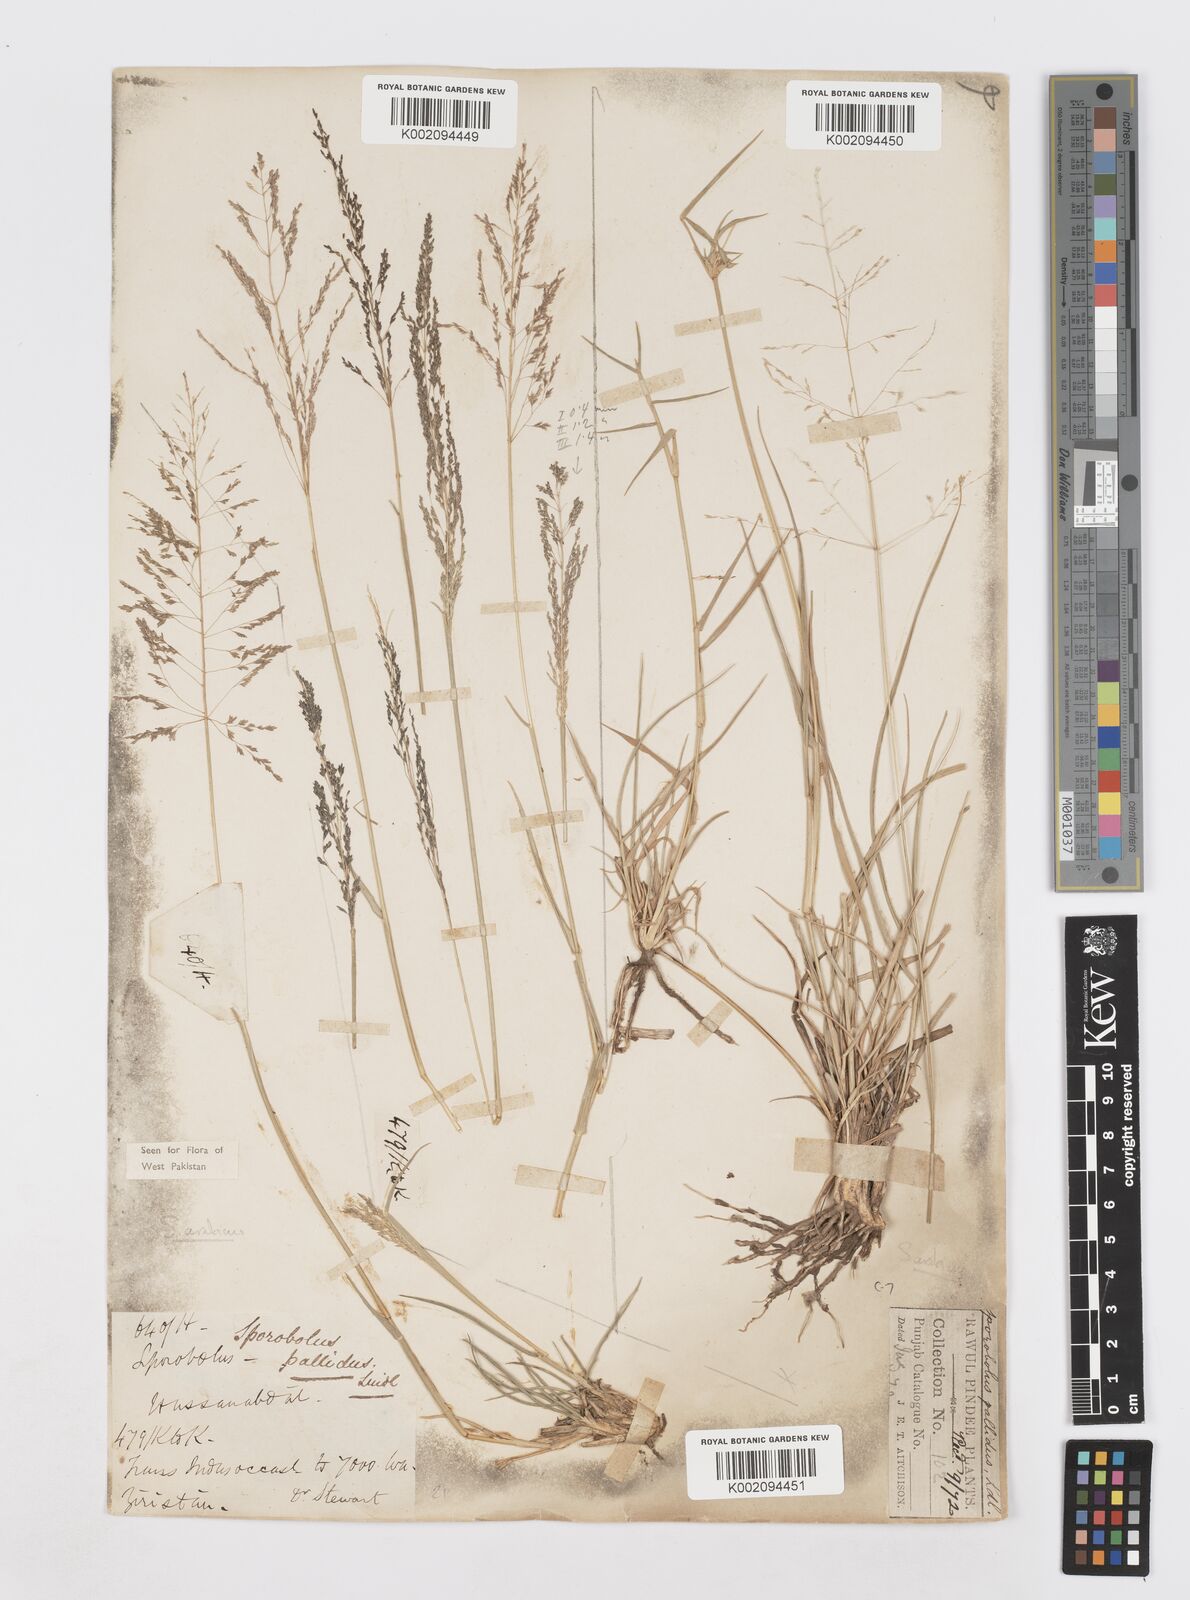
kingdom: Plantae
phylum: Tracheophyta
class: Liliopsida
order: Poales
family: Poaceae
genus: Sporobolus
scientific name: Sporobolus ioclados
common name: Pan dropseed
